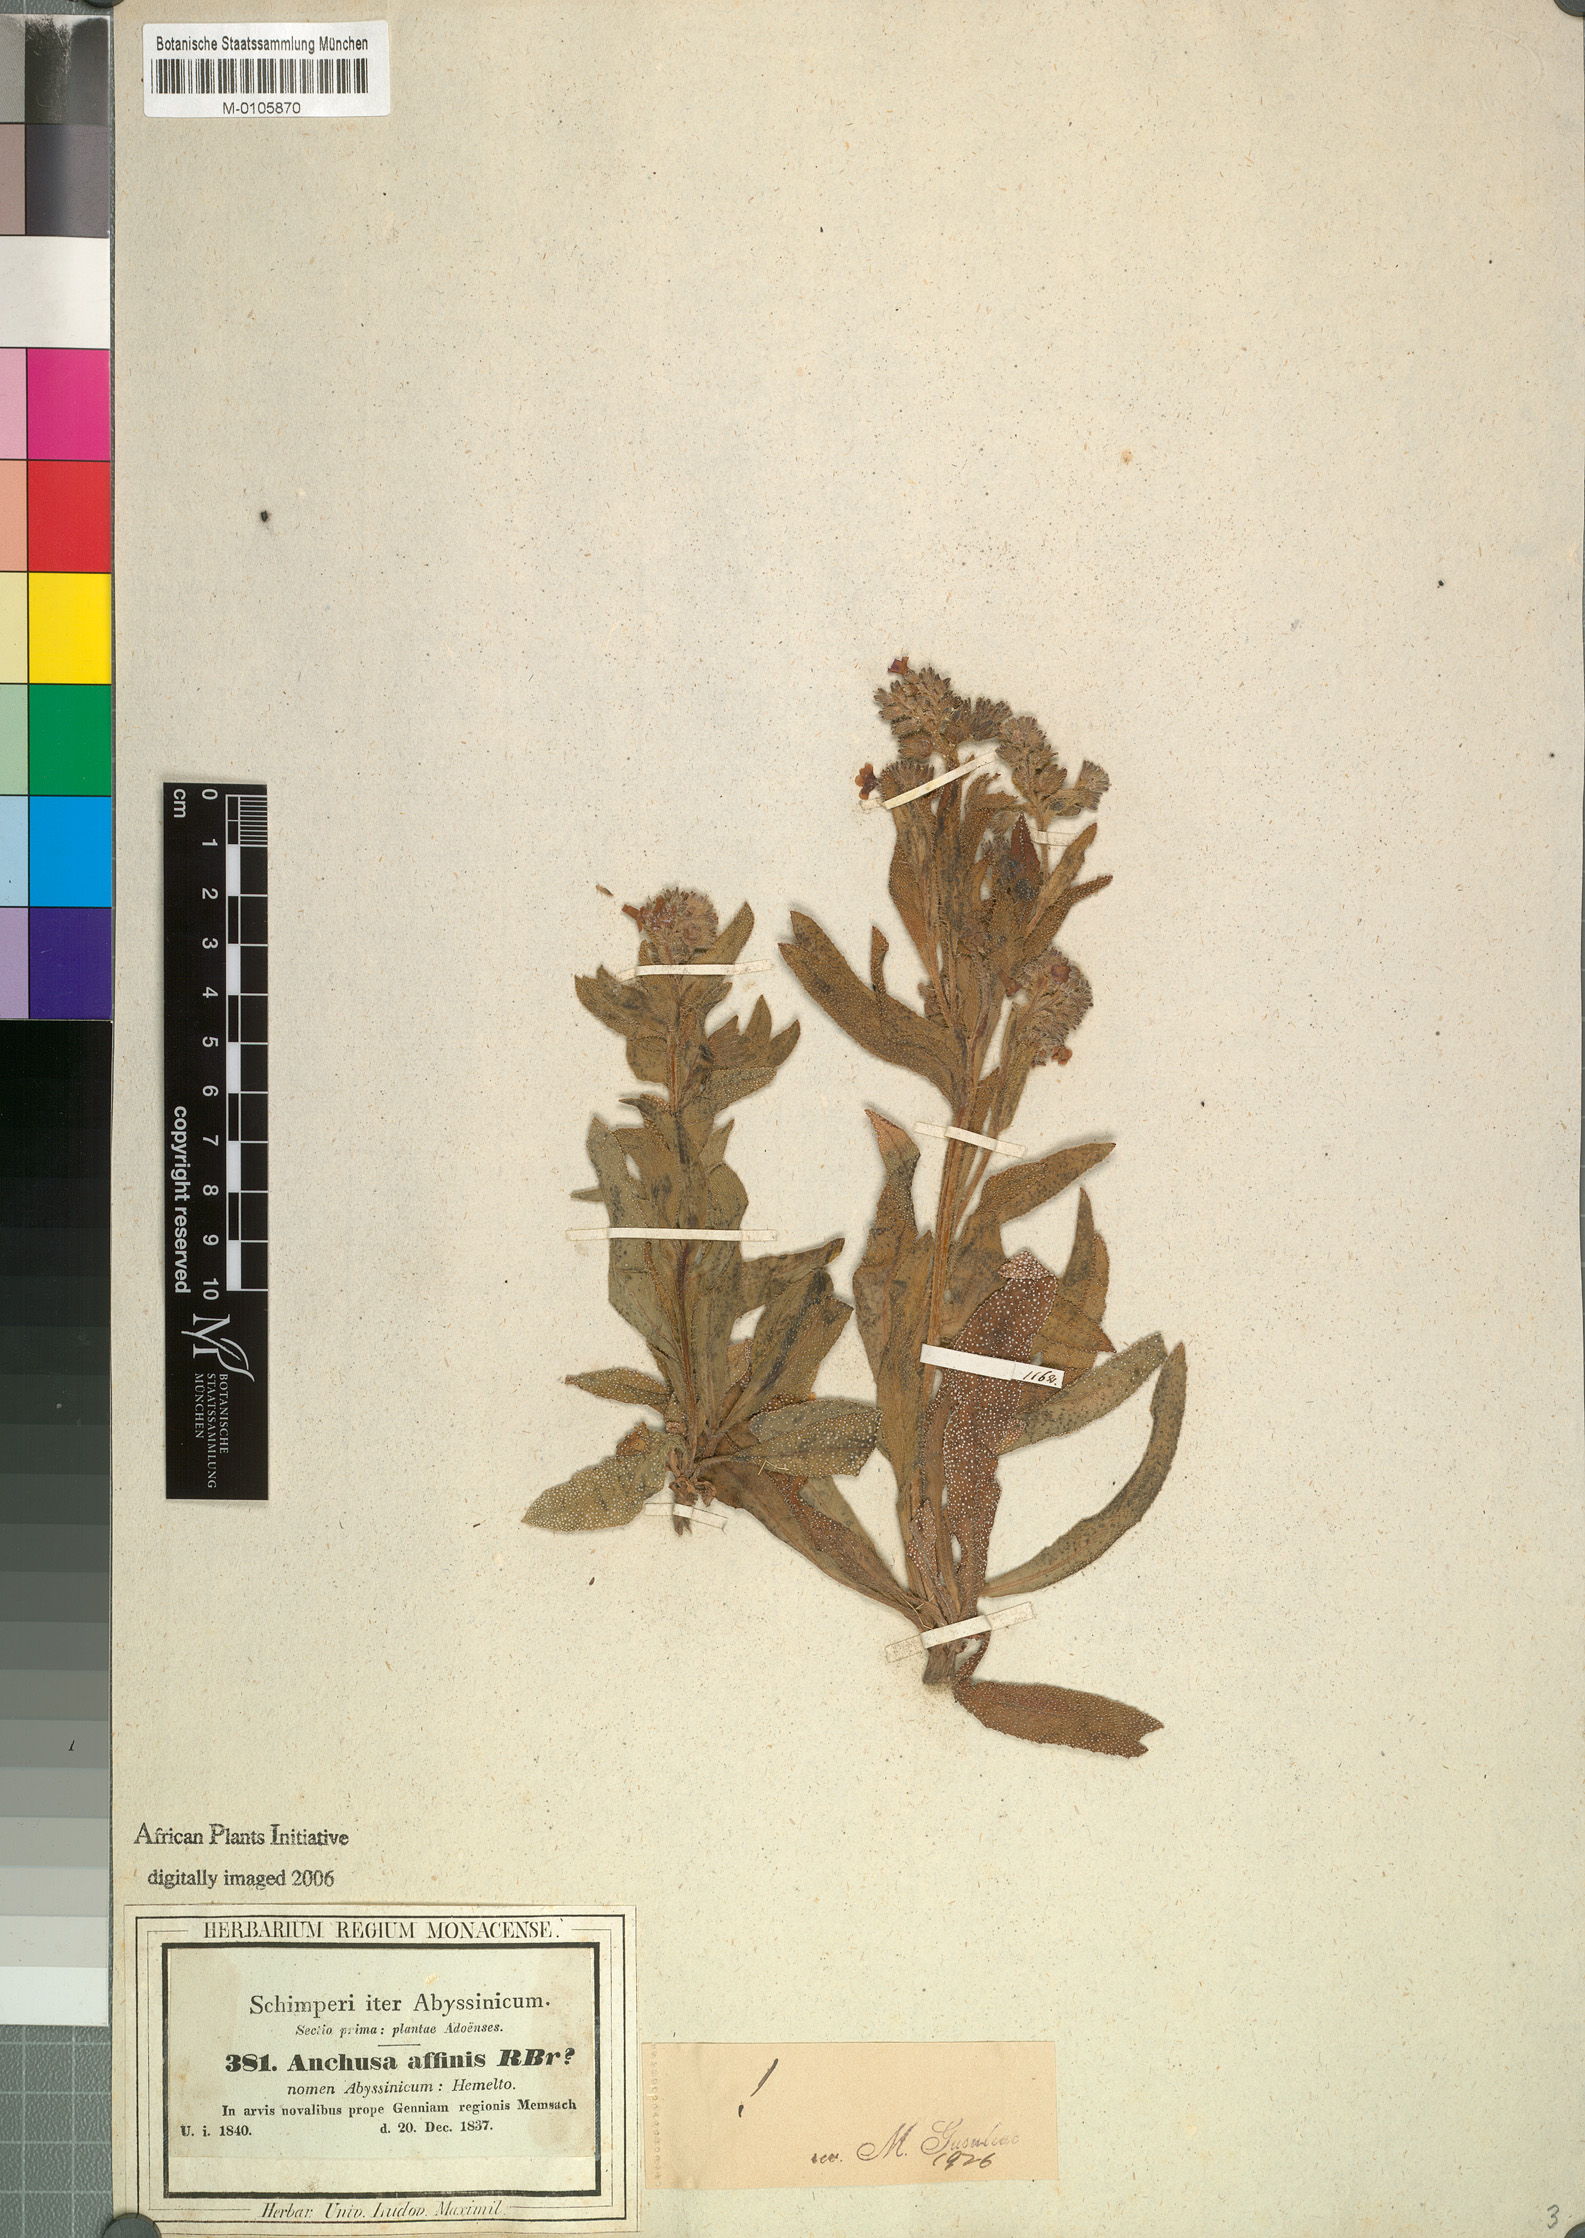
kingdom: Plantae
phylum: Tracheophyta
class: Magnoliopsida
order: Boraginales
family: Boraginaceae
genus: Anchusa
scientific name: Anchusa affinis
